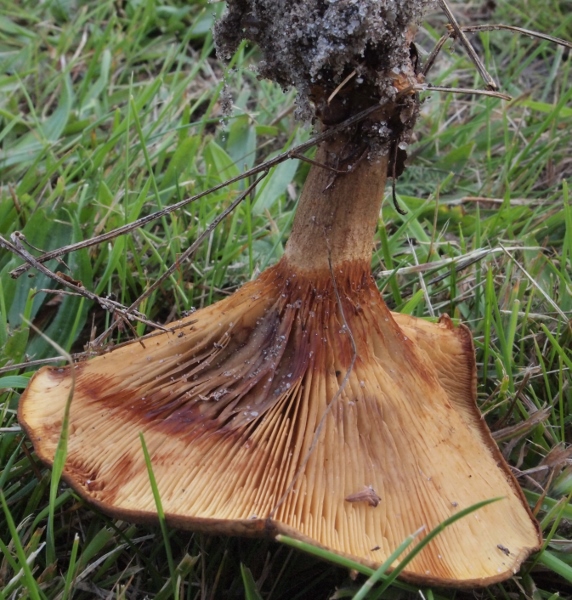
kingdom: Fungi
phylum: Basidiomycota
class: Agaricomycetes
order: Boletales
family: Paxillaceae
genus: Paxillus
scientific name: Paxillus rubicundulus
